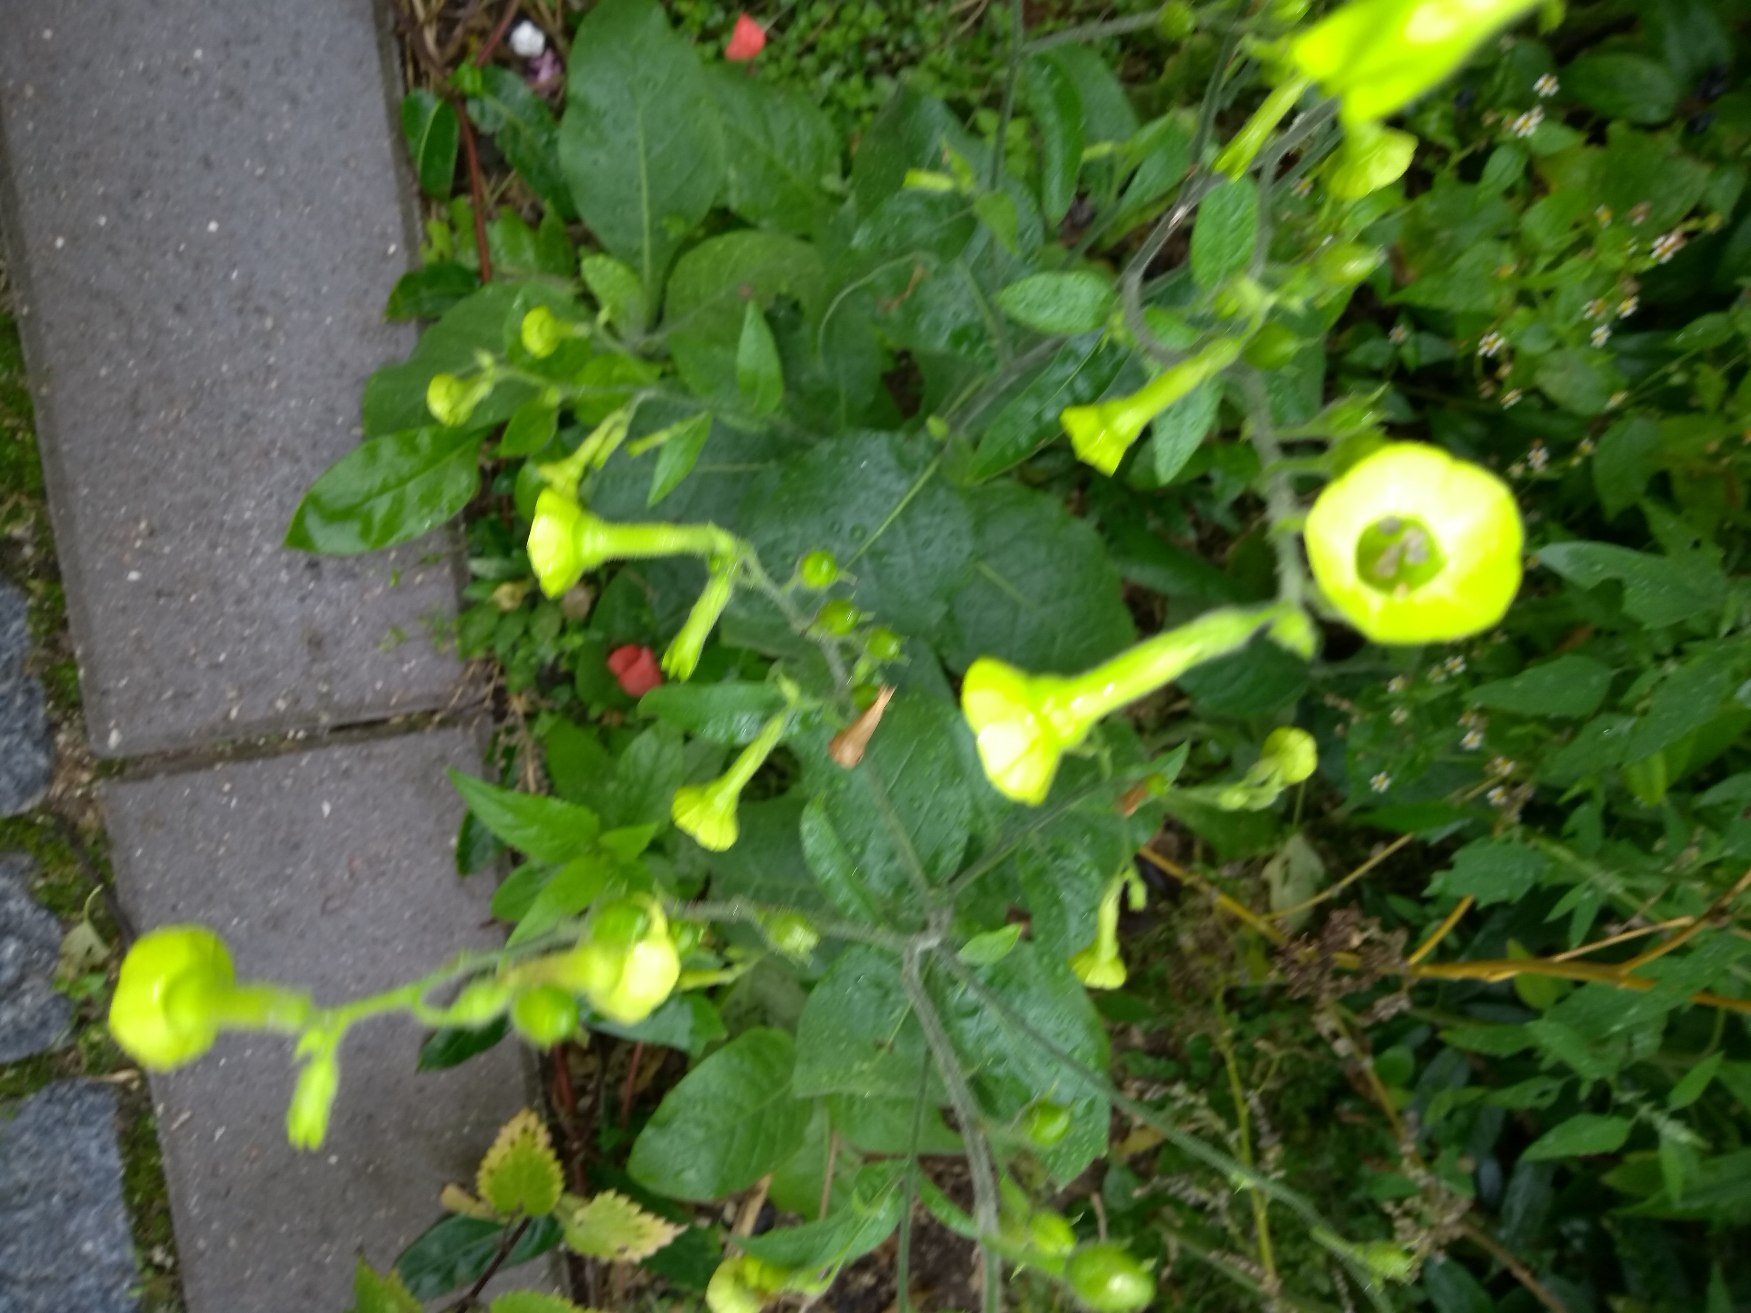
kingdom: Plantae
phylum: Tracheophyta
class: Magnoliopsida
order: Solanales
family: Solanaceae
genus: Nicotiana
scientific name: Nicotiana langsdorffii
